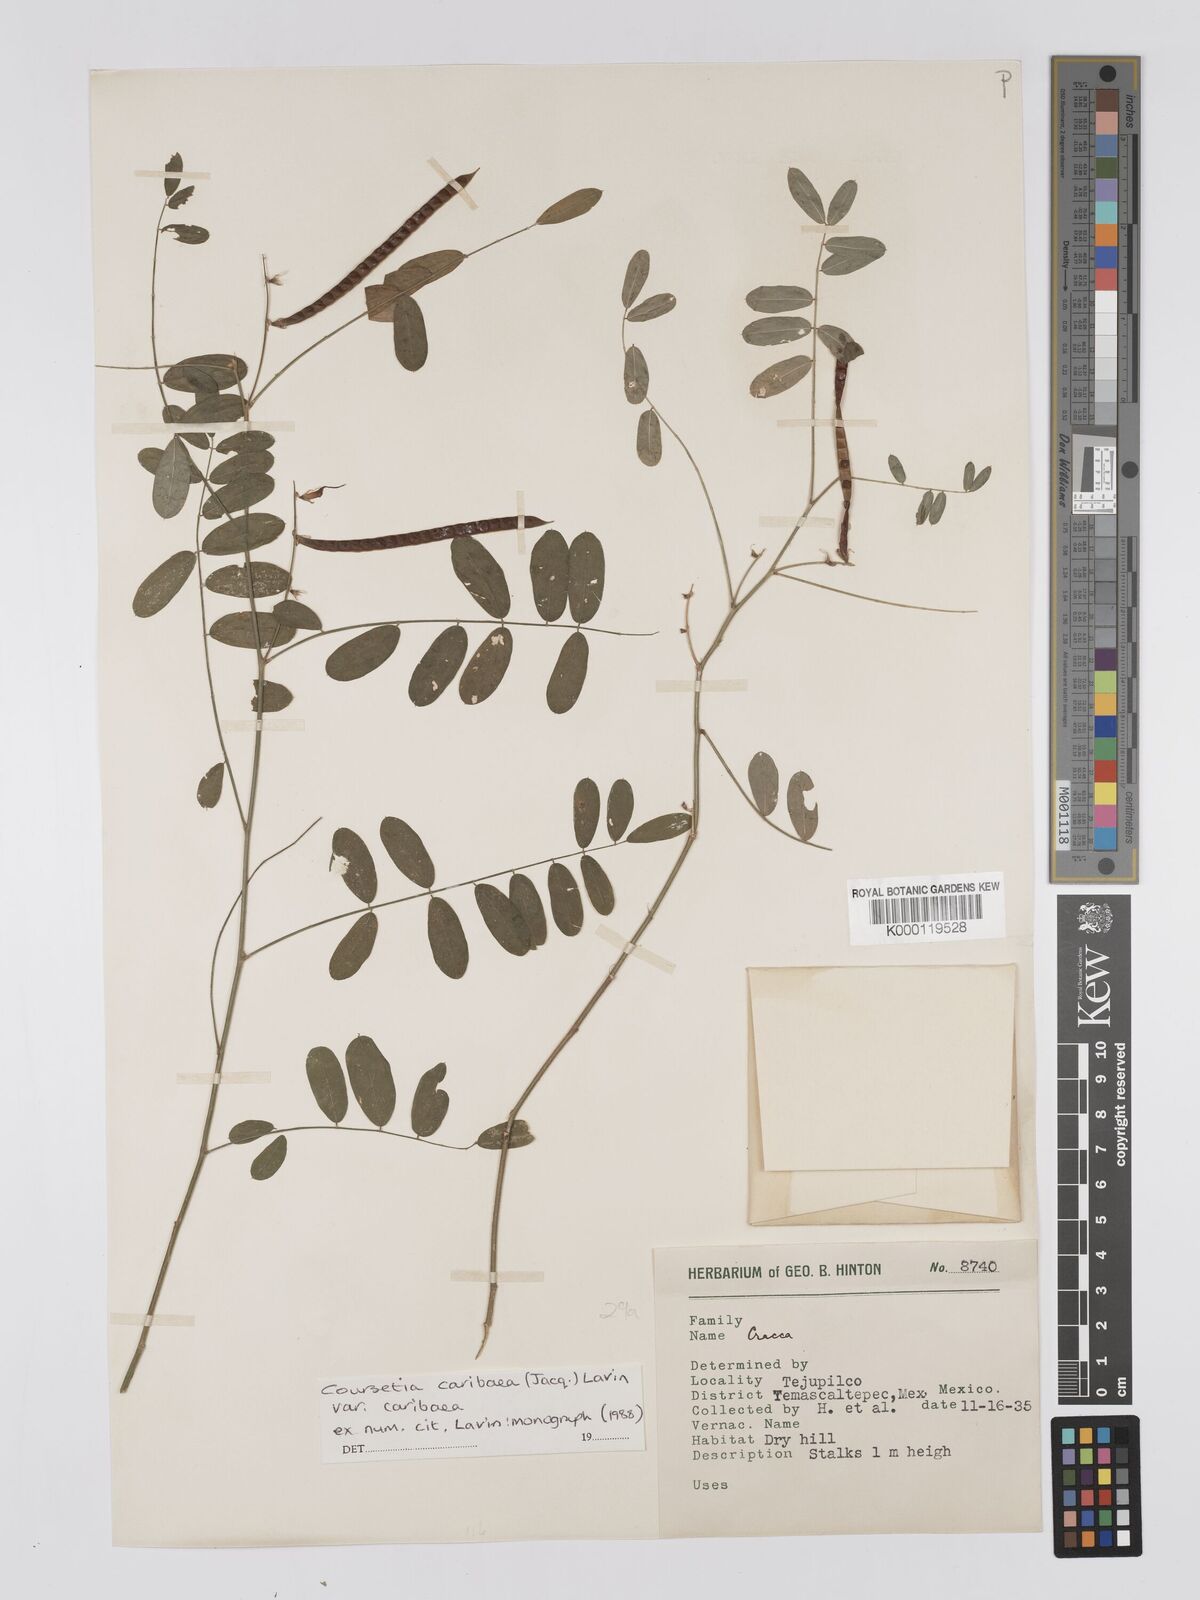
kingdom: Plantae
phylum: Tracheophyta
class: Magnoliopsida
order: Fabales
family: Fabaceae
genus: Coursetia
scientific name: Coursetia caribaea
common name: Anil falso
